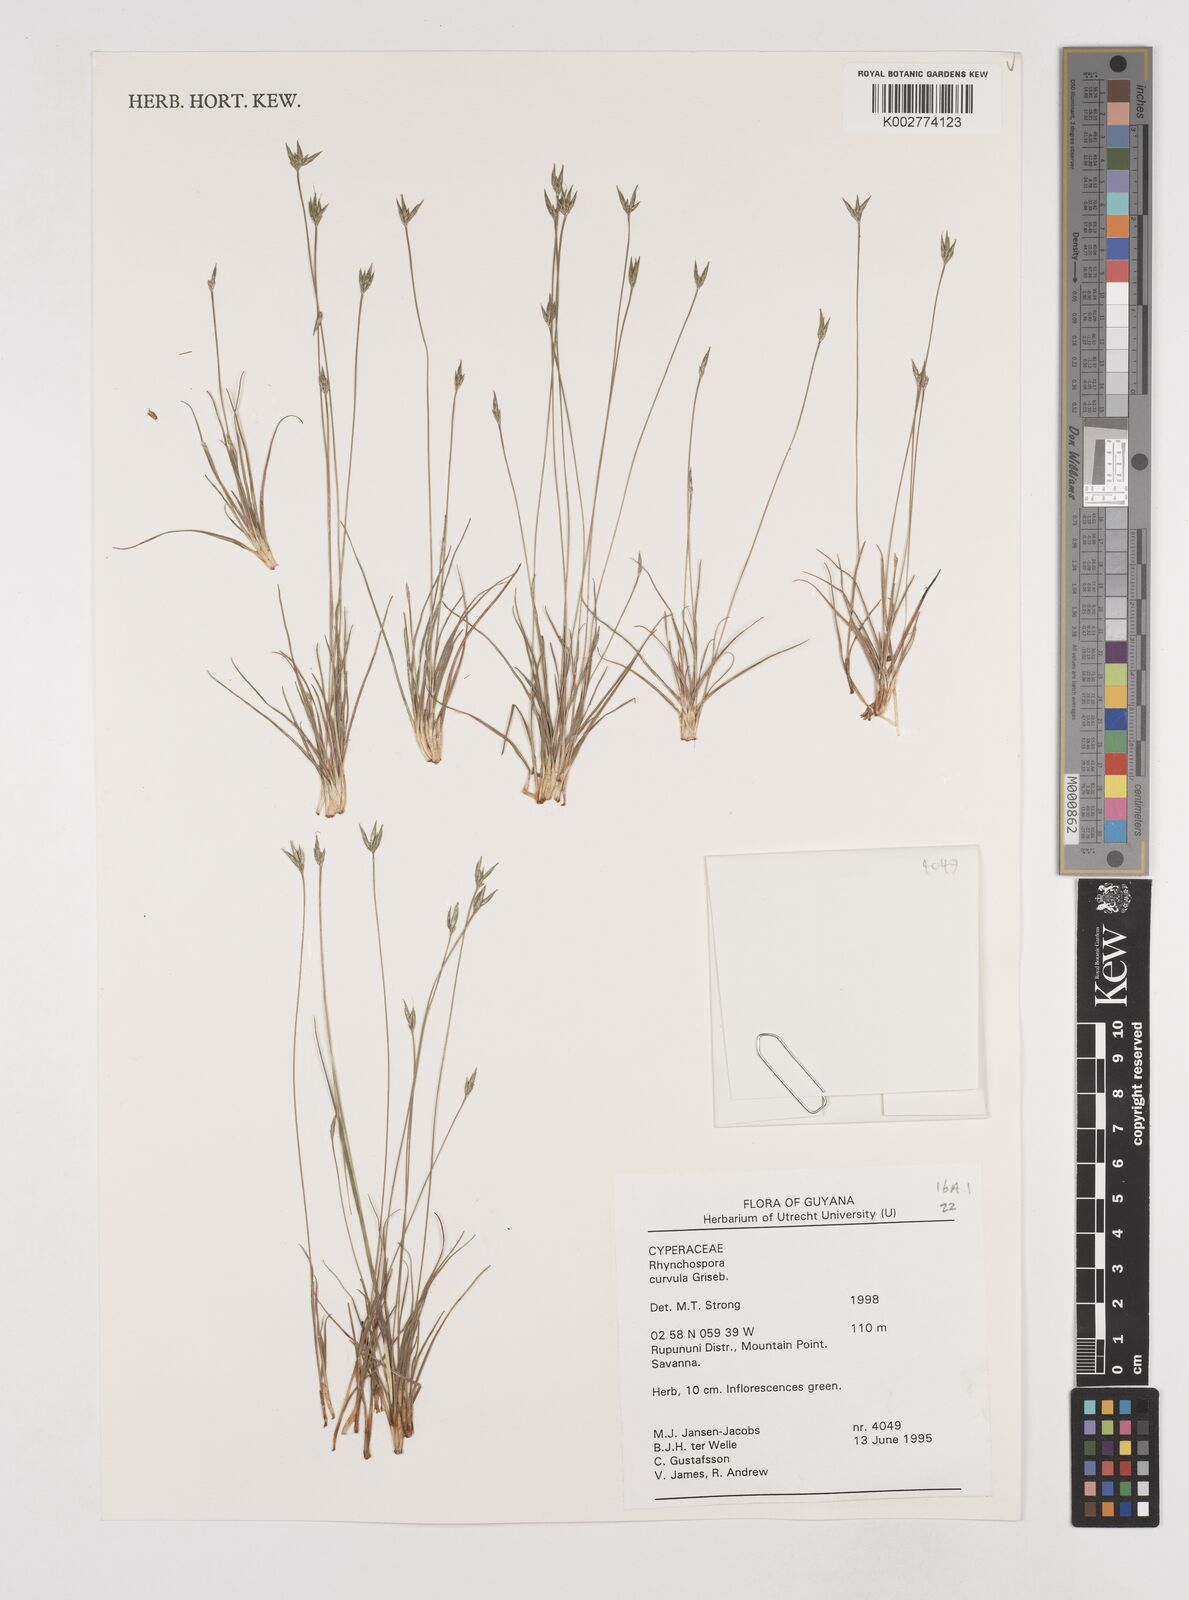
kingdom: Plantae
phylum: Tracheophyta
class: Liliopsida
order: Poales
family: Cyperaceae
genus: Rhynchospora
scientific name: Rhynchospora curvula
